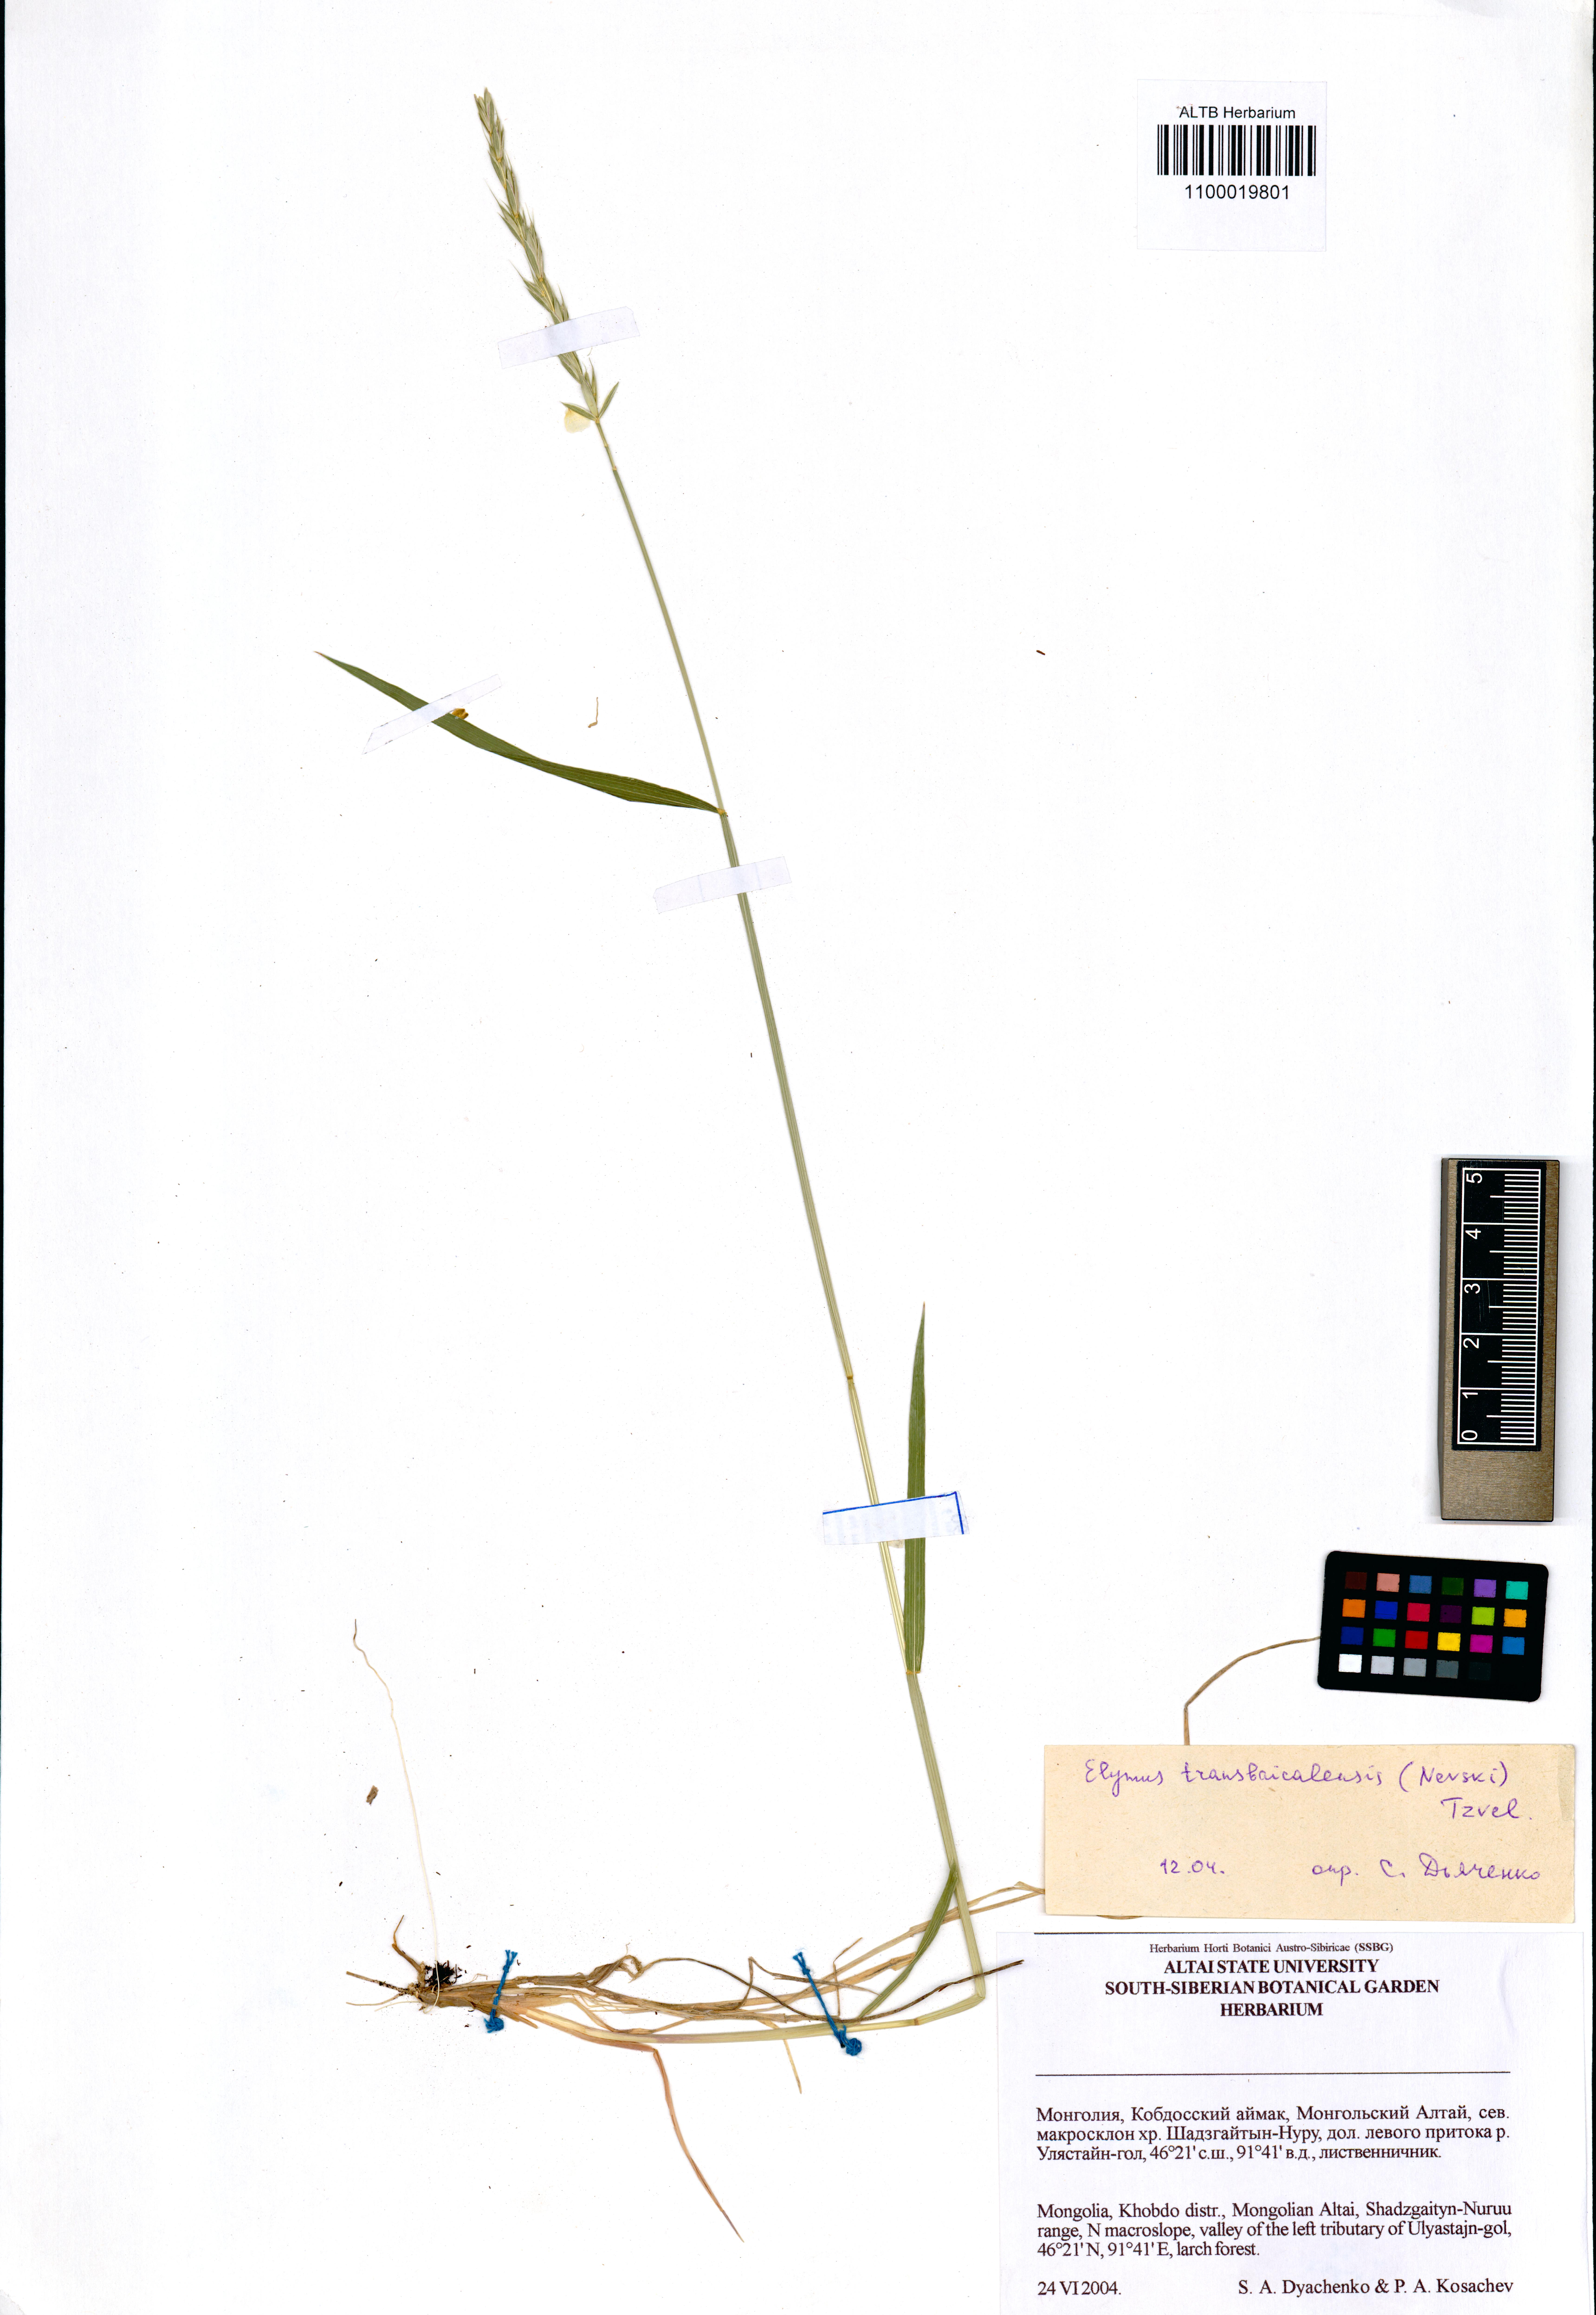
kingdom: Plantae
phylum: Tracheophyta
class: Liliopsida
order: Poales
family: Poaceae
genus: Elymus
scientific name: Elymus mutabilis
